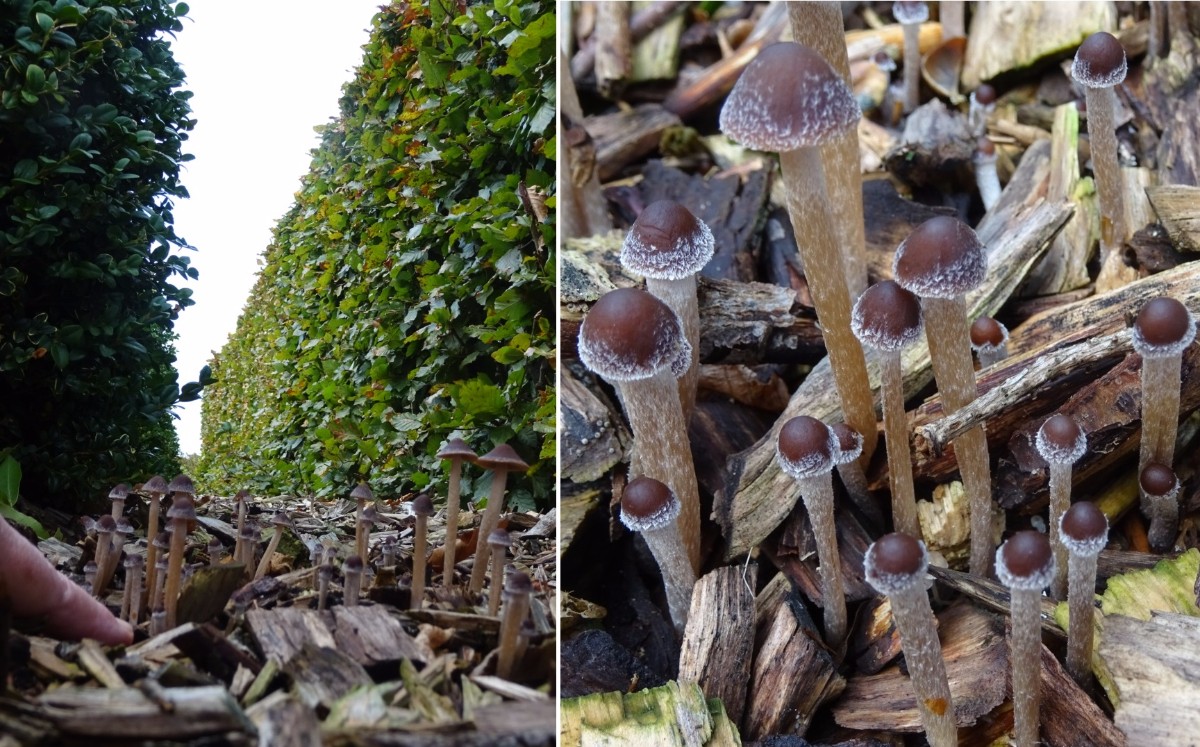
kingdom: Fungi
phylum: Basidiomycota
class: Agaricomycetes
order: Agaricales
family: Psathyrellaceae
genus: Psathyrella
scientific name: Psathyrella
